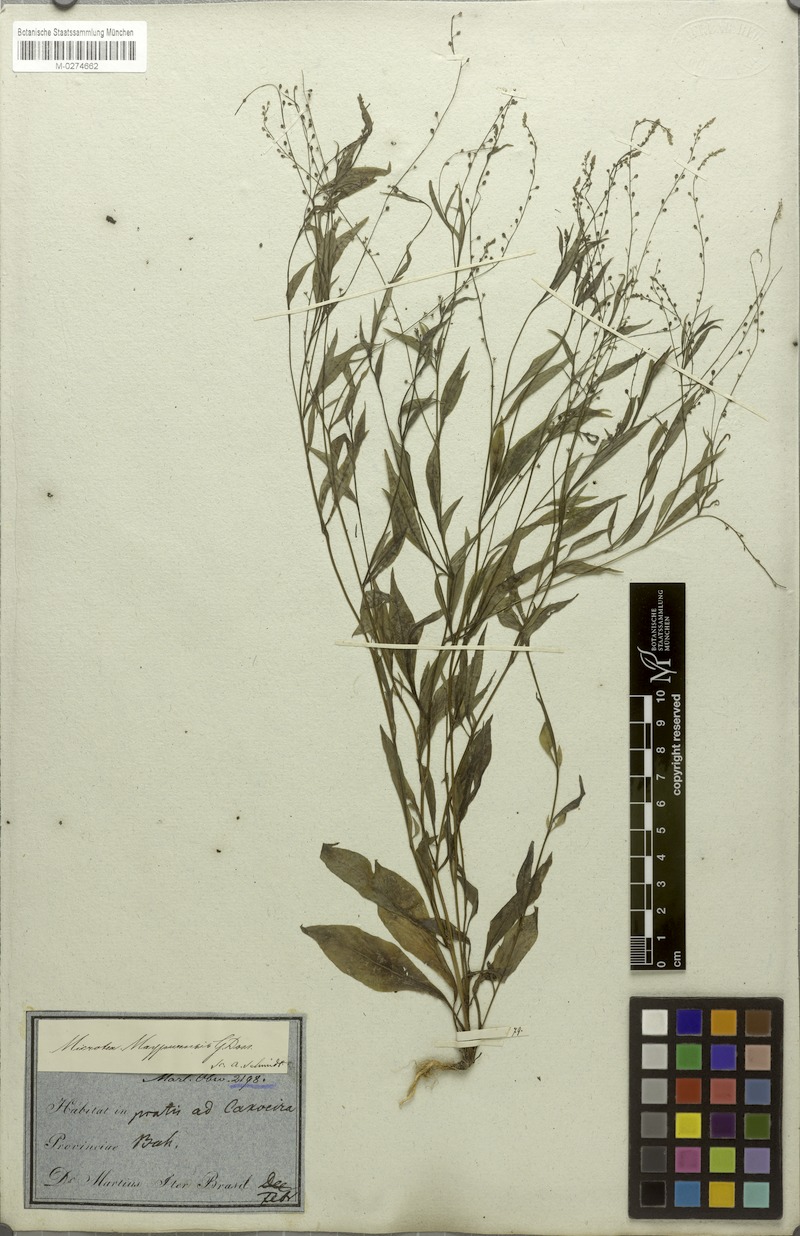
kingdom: Plantae
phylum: Tracheophyta
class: Magnoliopsida
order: Caryophyllales
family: Microteaceae
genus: Microtea
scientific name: Microtea maypurensis
